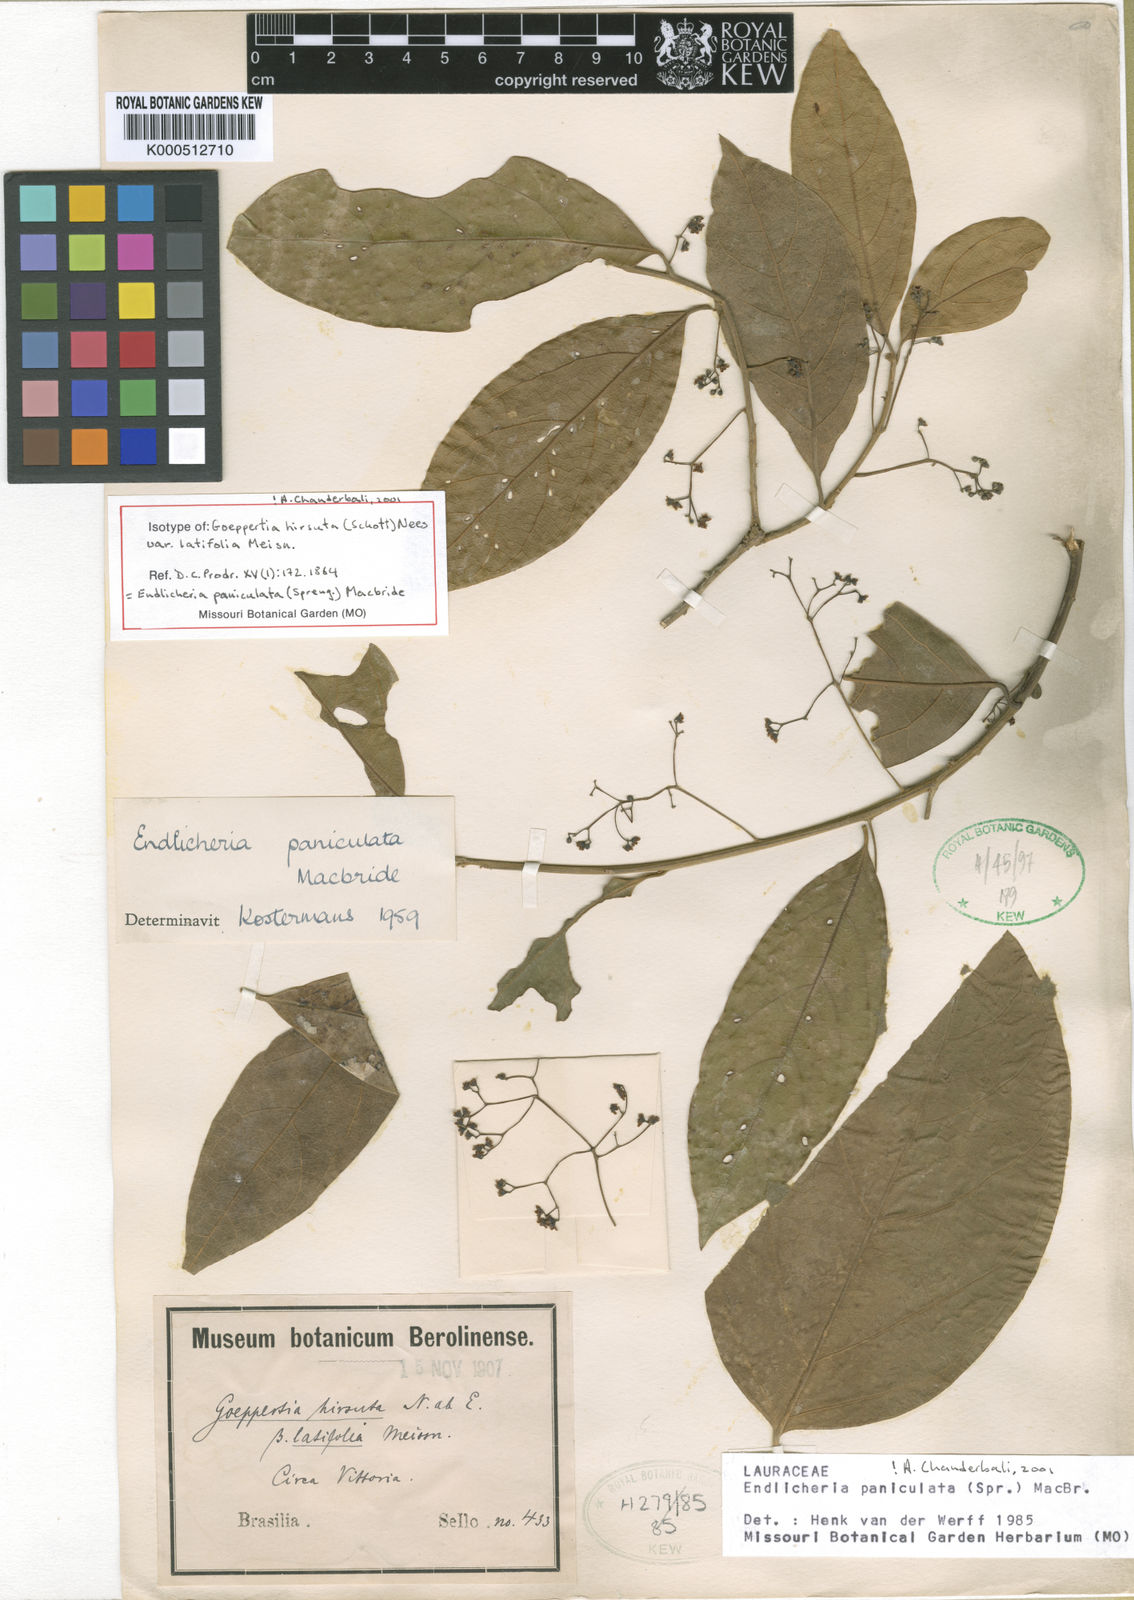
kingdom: Plantae
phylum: Tracheophyta
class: Magnoliopsida
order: Laurales
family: Lauraceae
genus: Endlicheria
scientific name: Endlicheria paniculata
